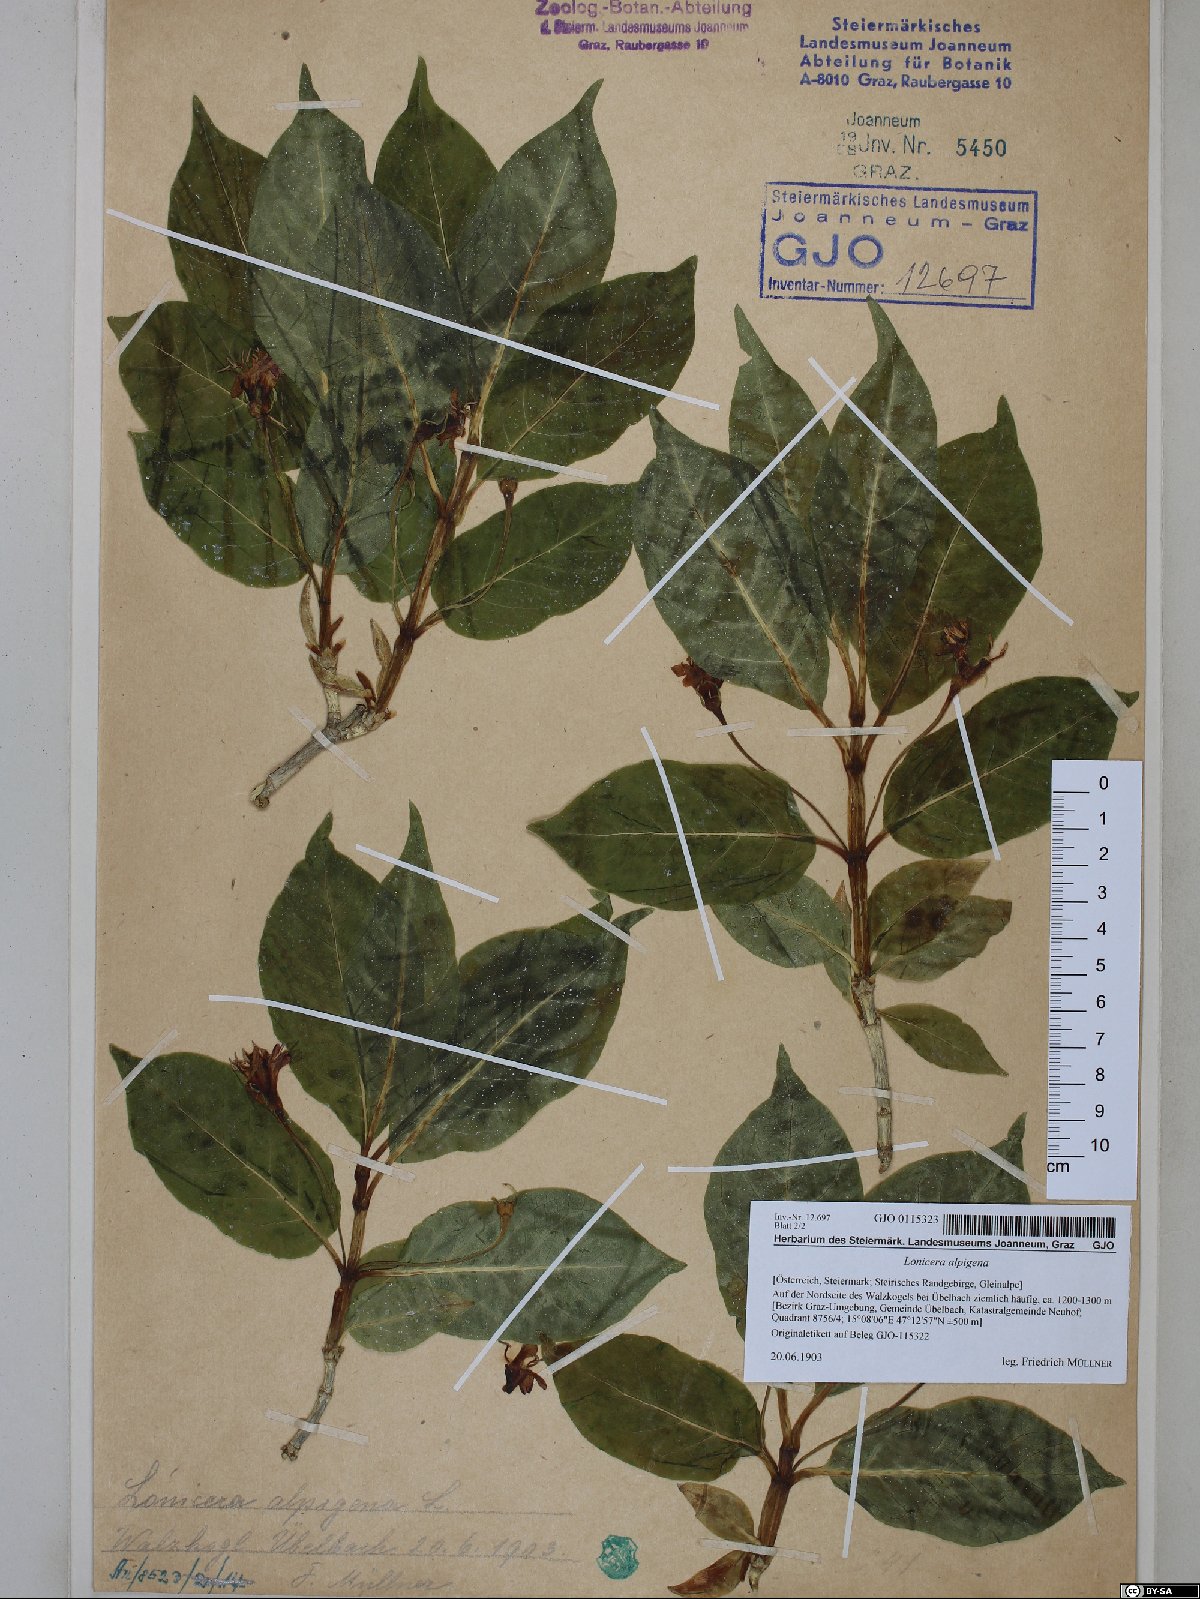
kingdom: Plantae
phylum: Tracheophyta
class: Magnoliopsida
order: Dipsacales
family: Caprifoliaceae
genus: Lonicera
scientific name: Lonicera alpigena
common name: Alpine honeysuckle
